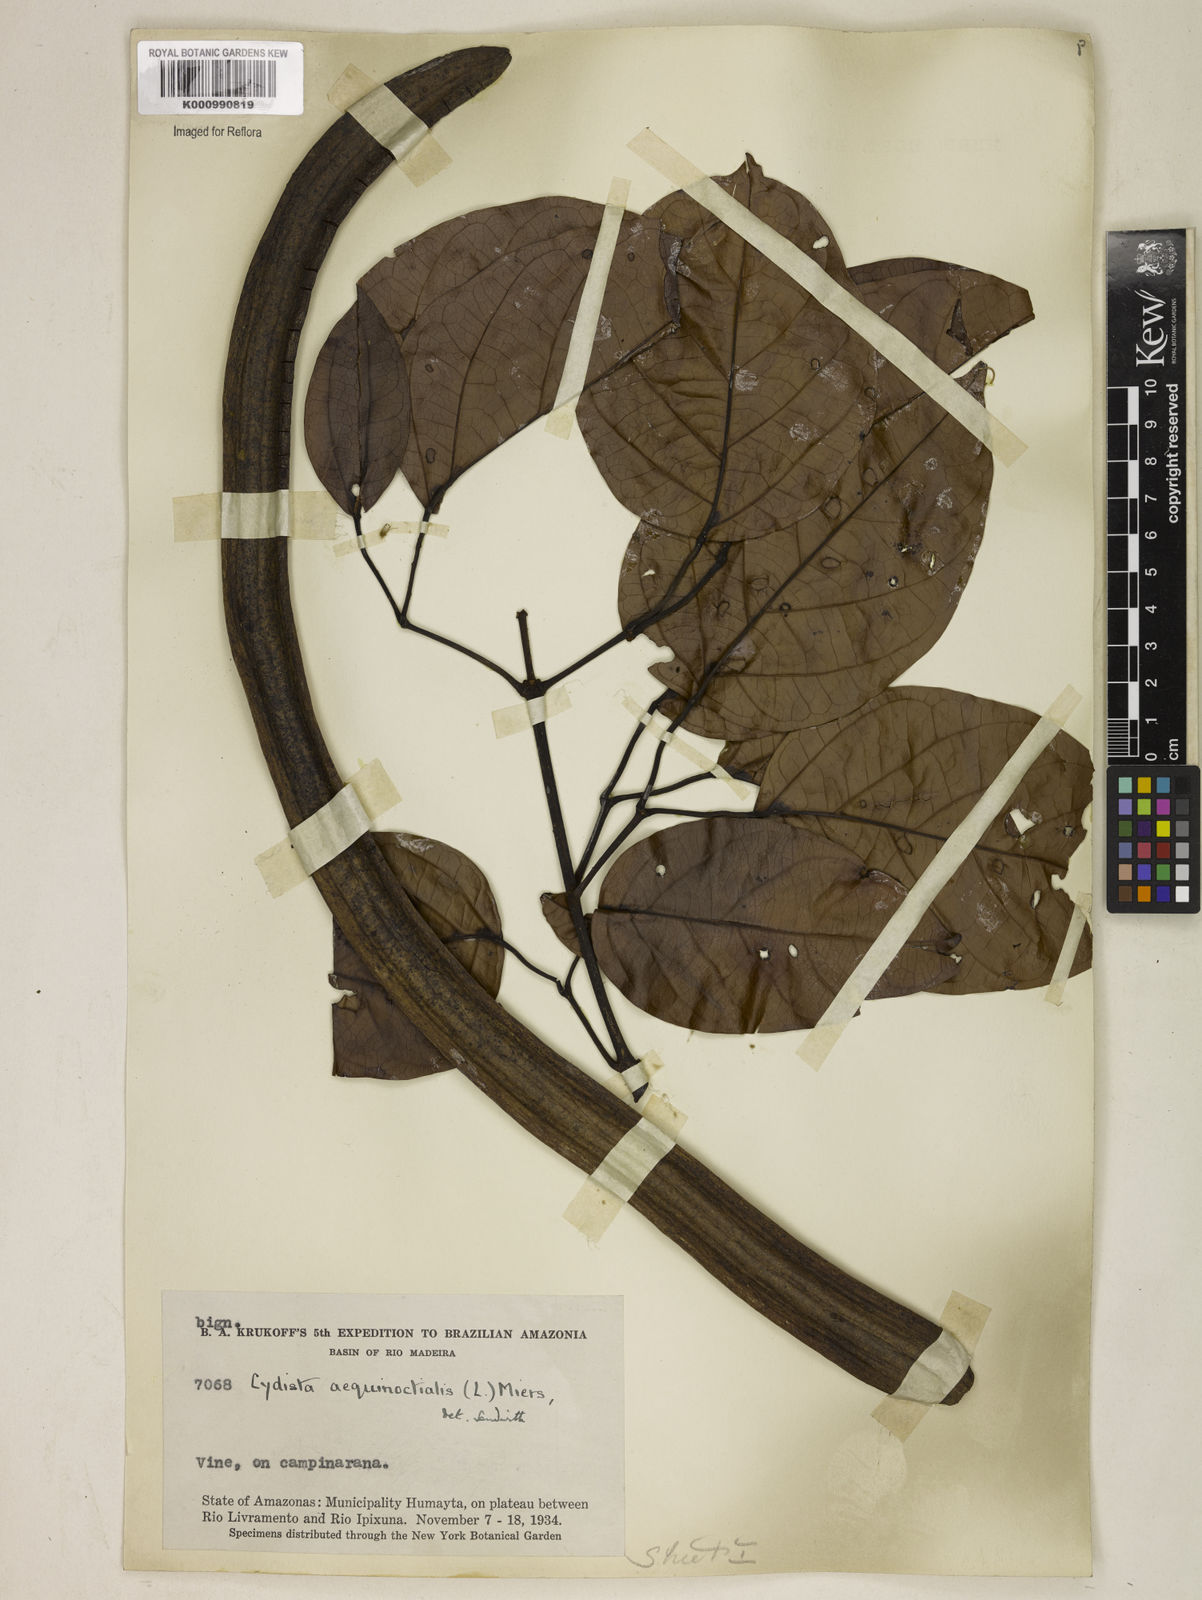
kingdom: Plantae
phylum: Tracheophyta
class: Magnoliopsida
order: Lamiales
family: Bignoniaceae
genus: Bignonia
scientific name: Bignonia aequinoctialis
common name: Garlicvine
